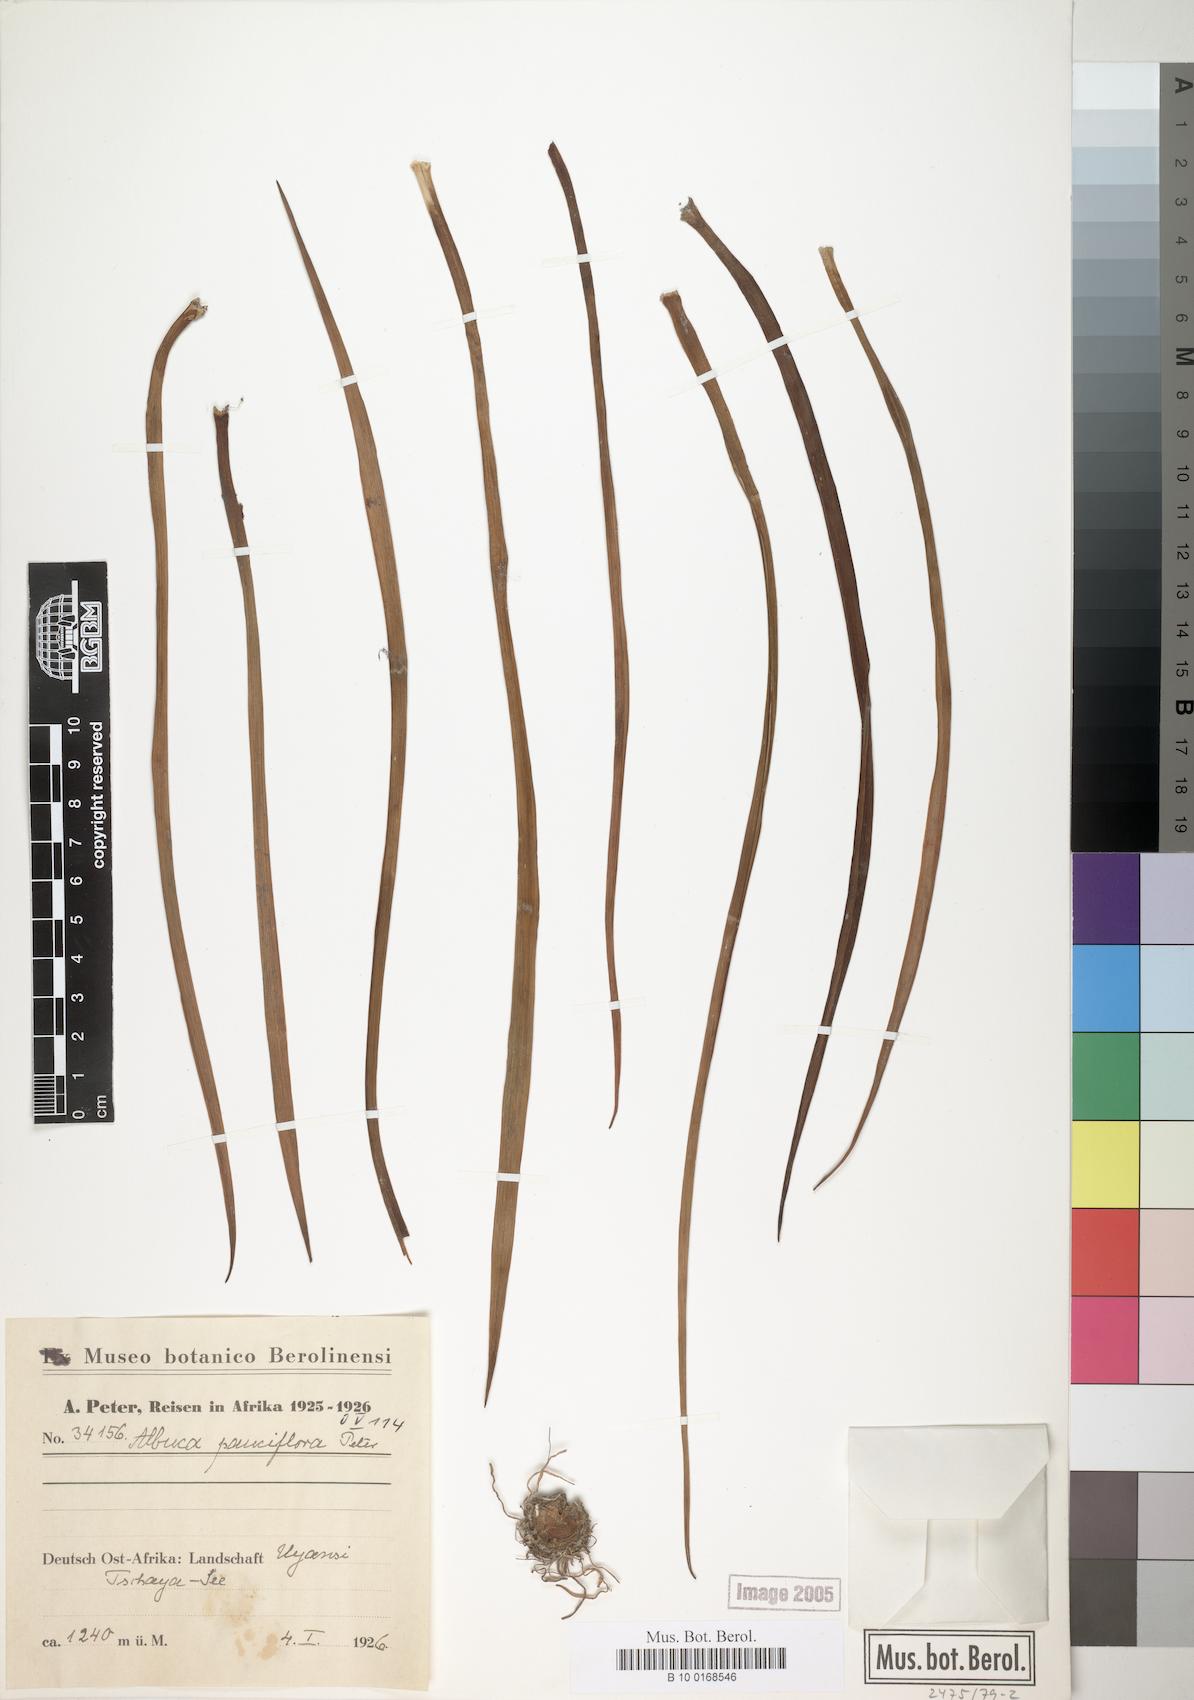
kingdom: Plantae
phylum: Tracheophyta
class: Liliopsida
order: Asparagales
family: Asparagaceae
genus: Albuca
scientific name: Albuca
